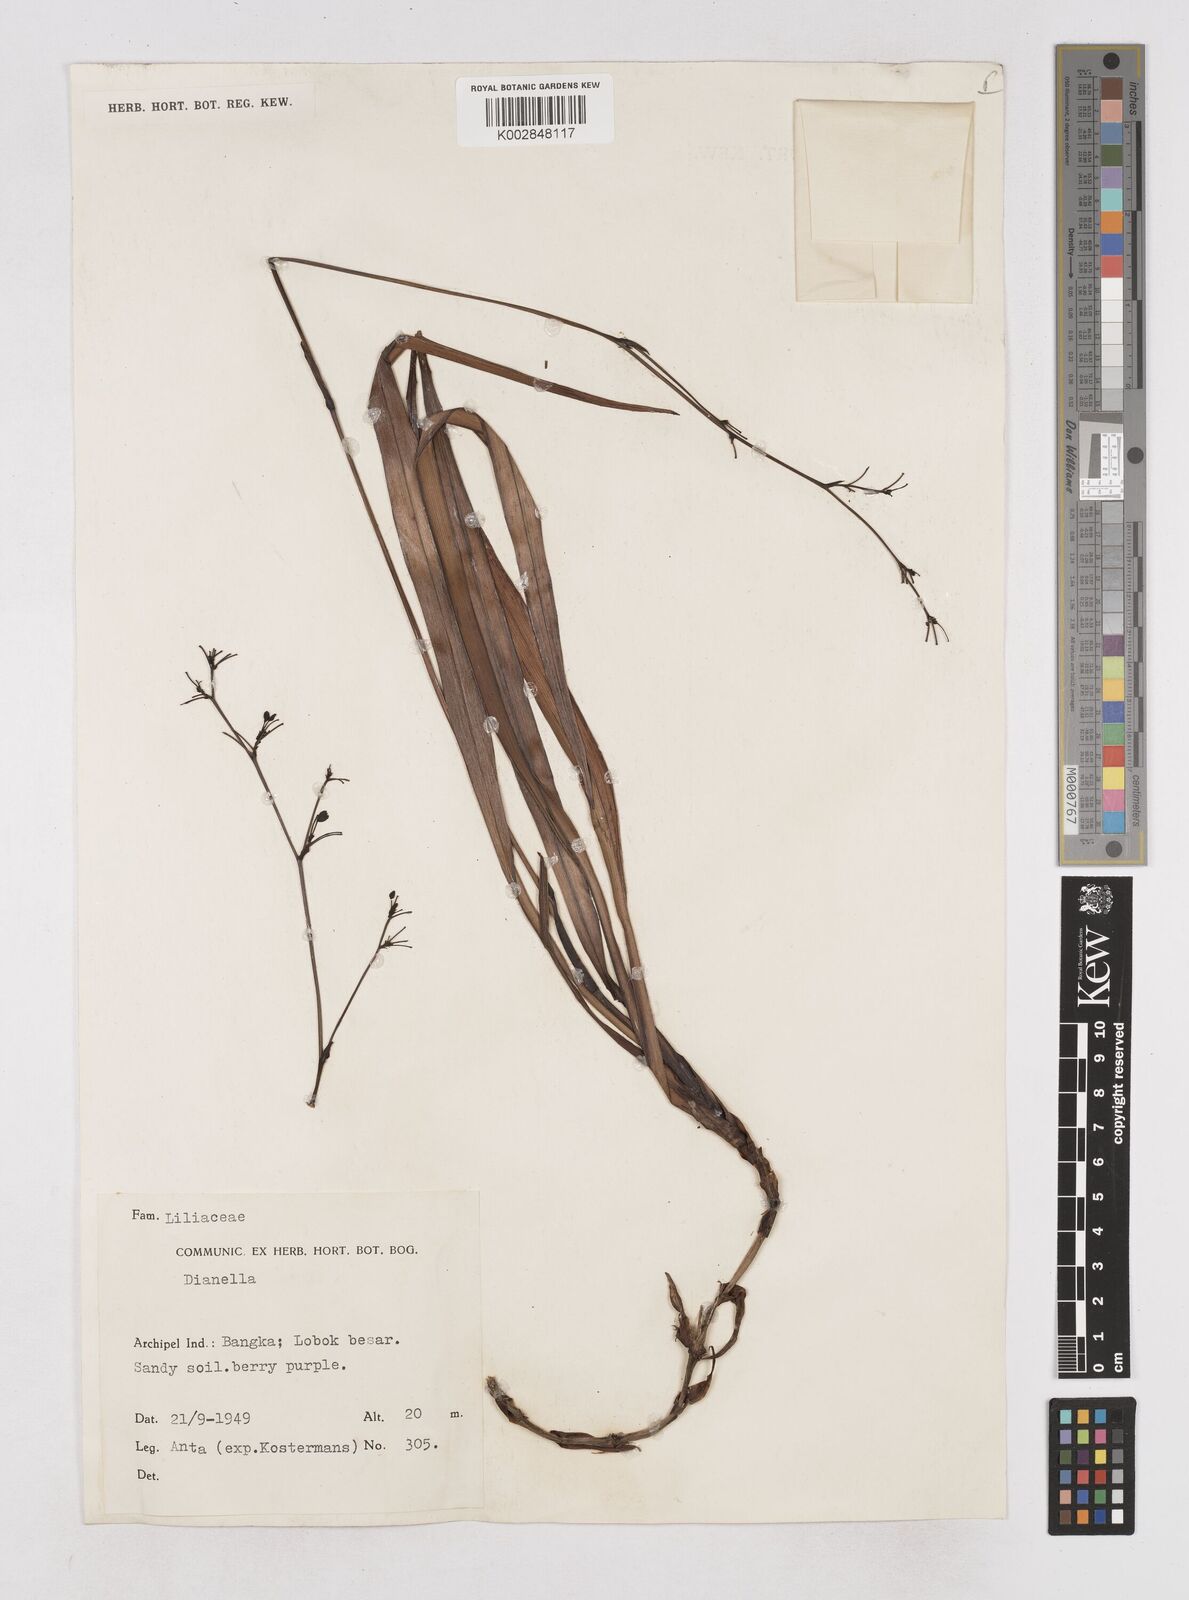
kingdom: Plantae
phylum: Tracheophyta
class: Liliopsida
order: Asparagales
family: Asphodelaceae
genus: Dianella
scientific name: Dianella ensifolia
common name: New zealand lilyplant
